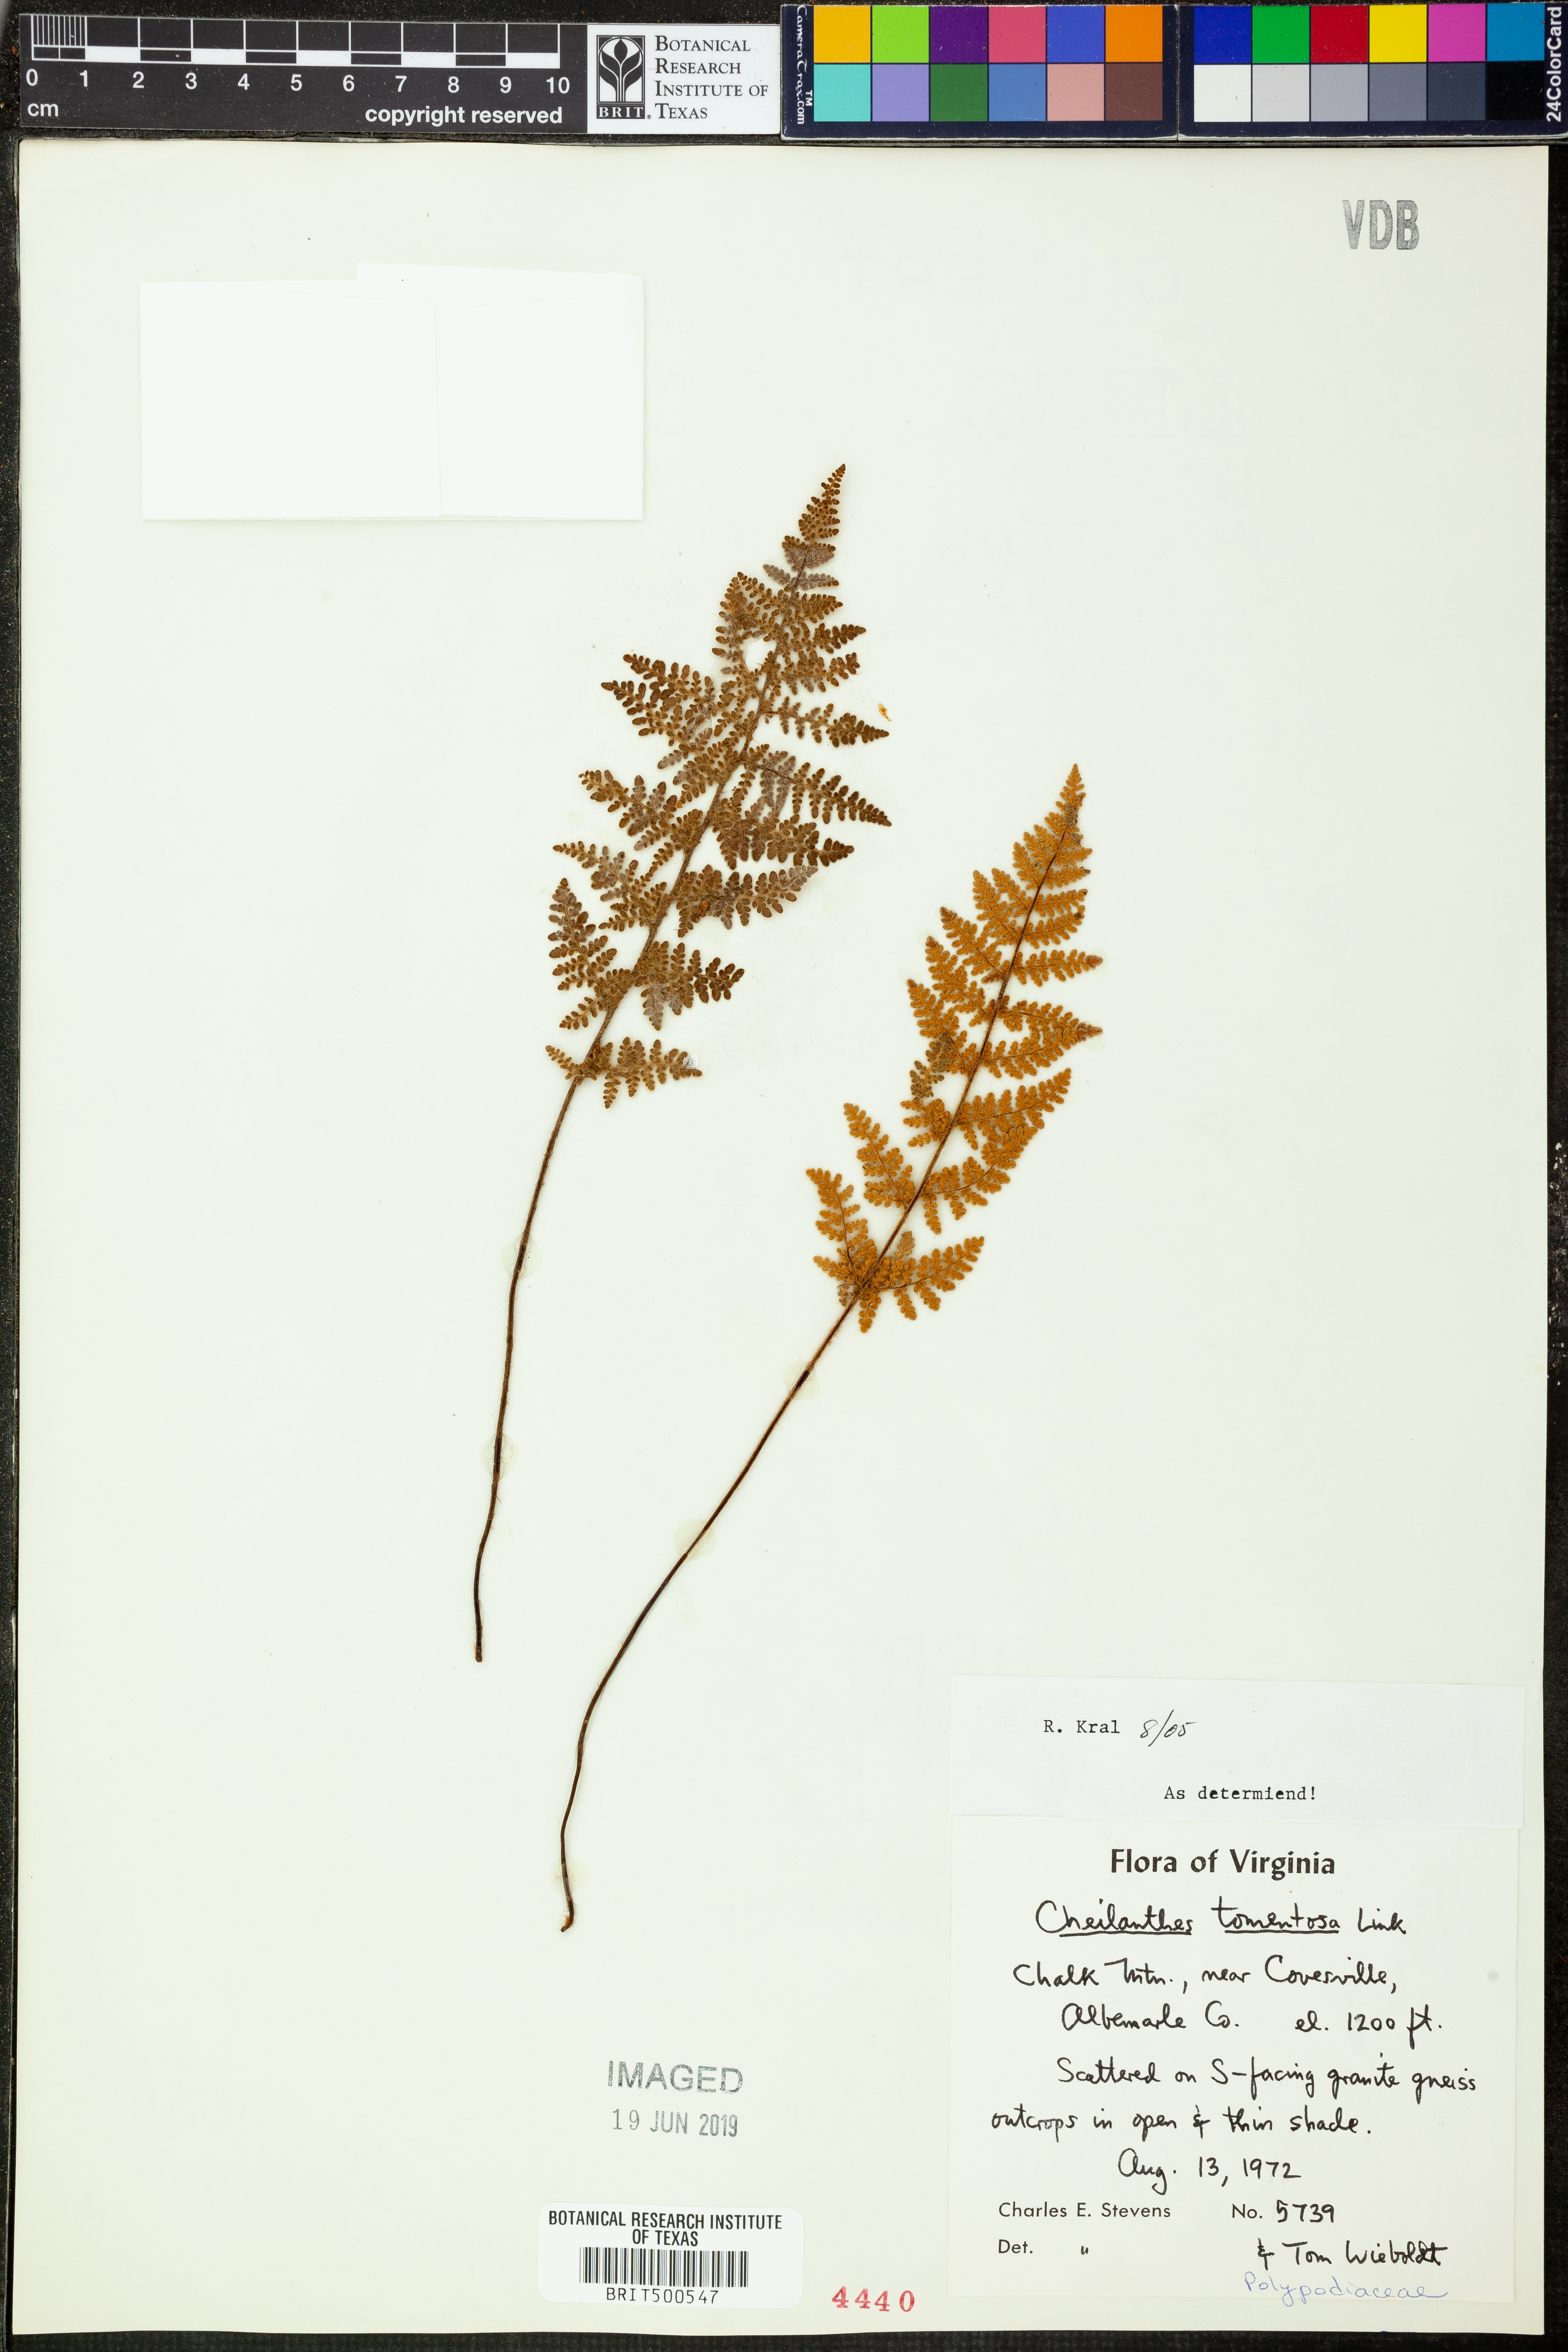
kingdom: Plantae
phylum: Tracheophyta
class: Polypodiopsida
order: Polypodiales
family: Pteridaceae
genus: Myriopteris
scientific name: Myriopteris tomentosa
